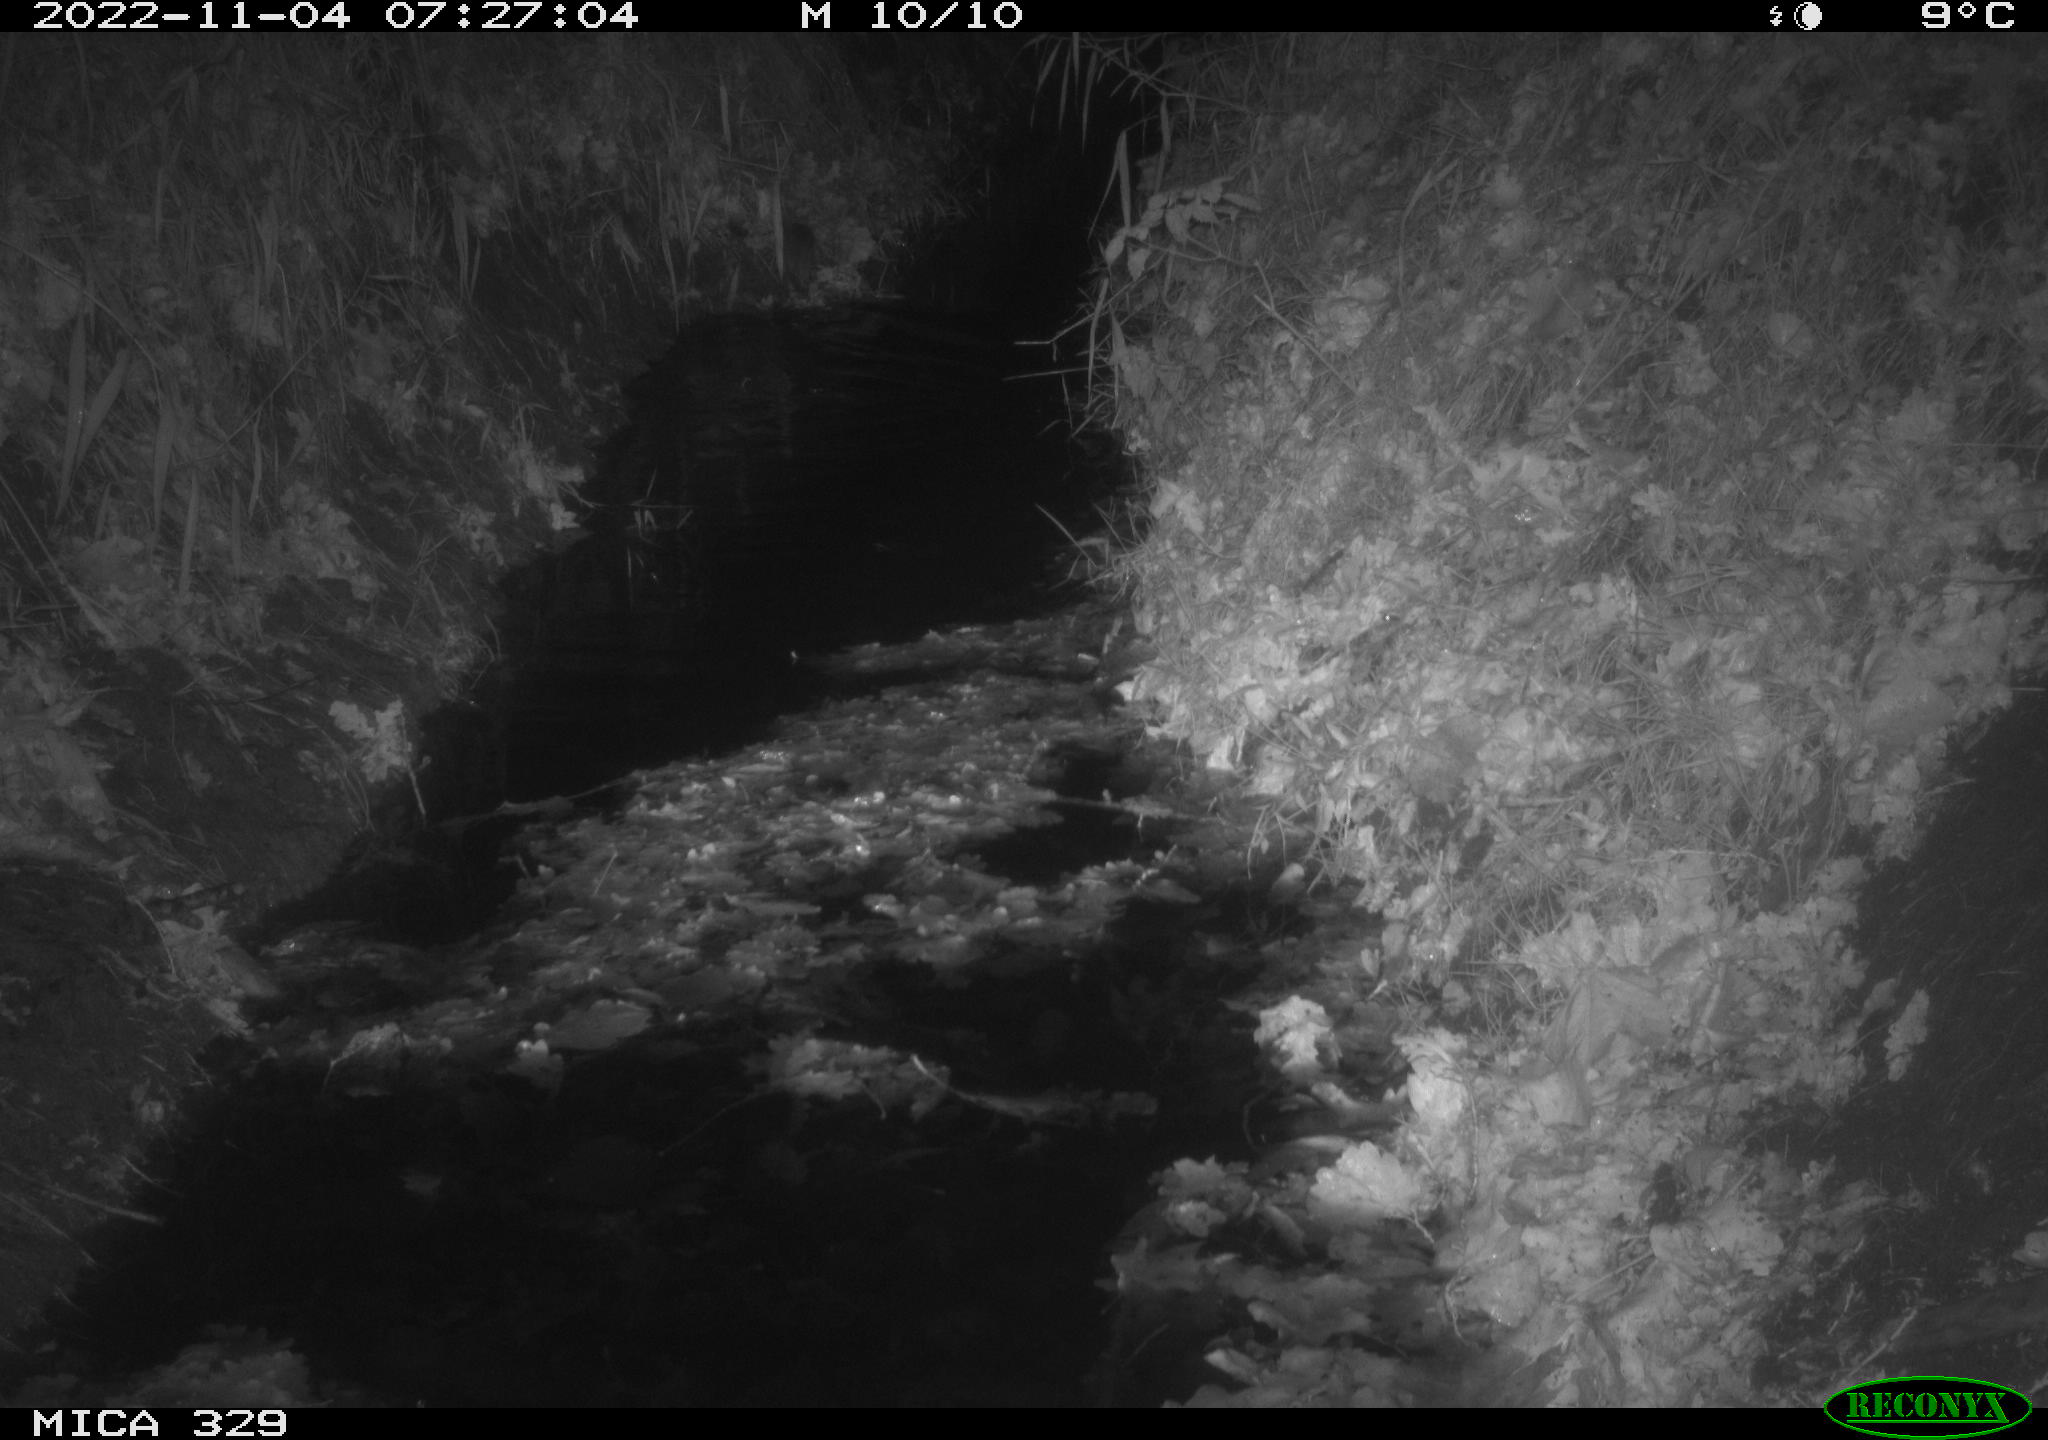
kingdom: Animalia
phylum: Chordata
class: Mammalia
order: Rodentia
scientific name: Rodentia
